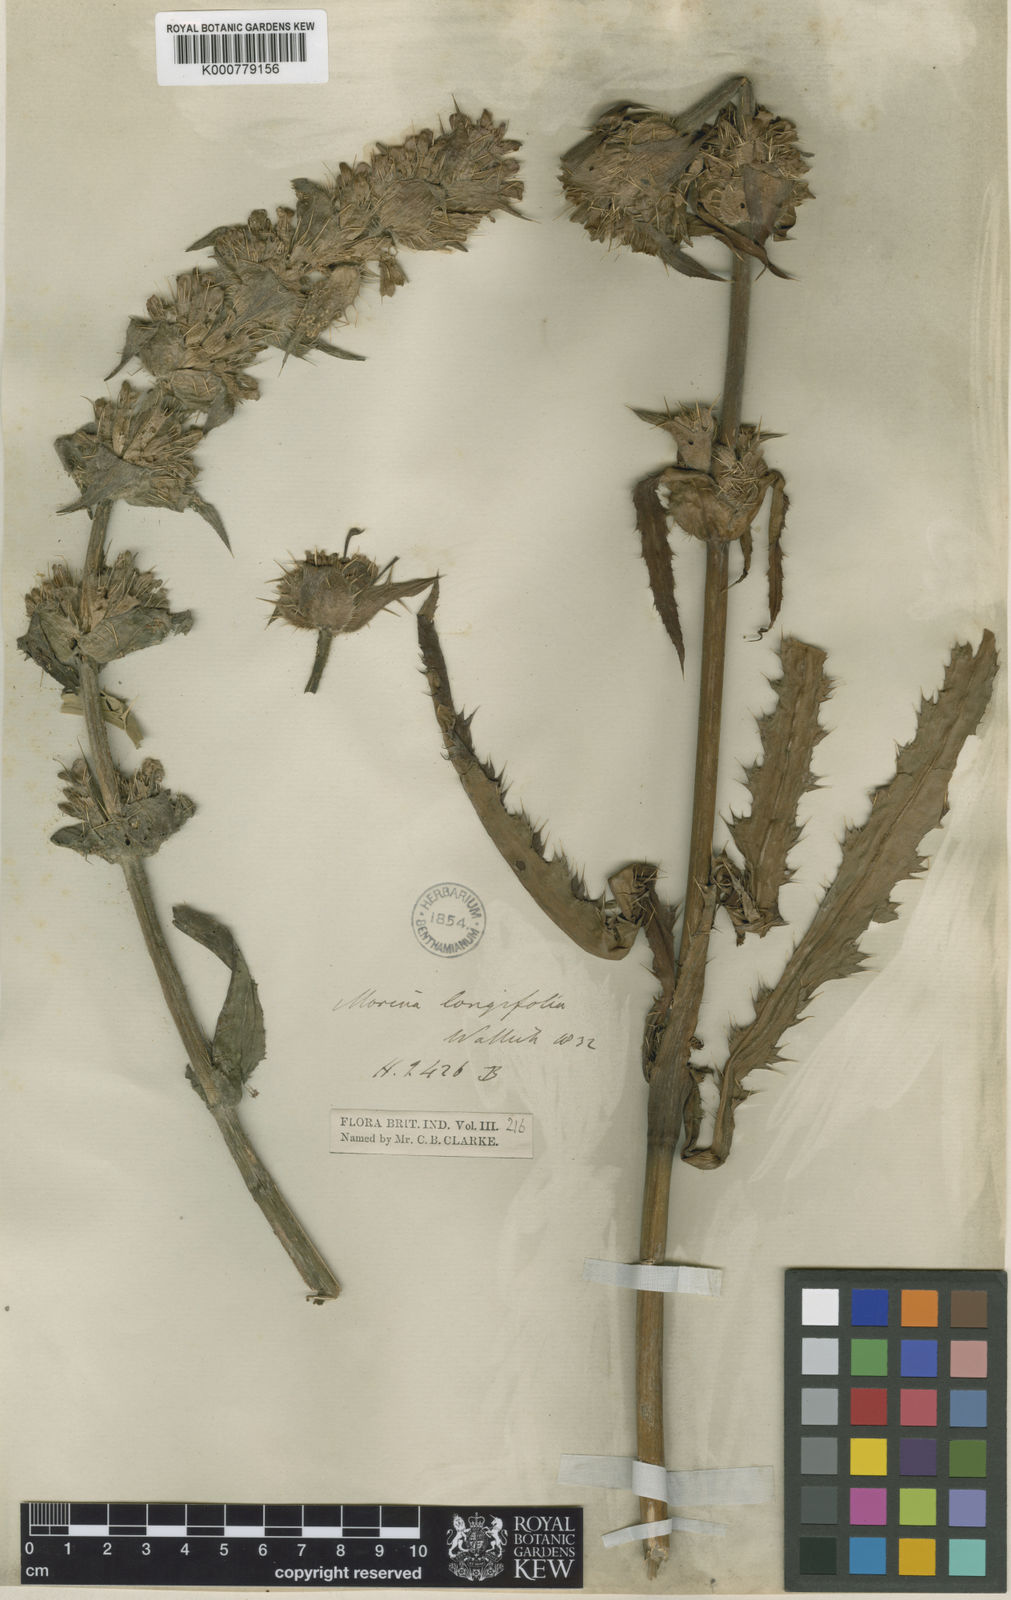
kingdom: Plantae
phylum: Tracheophyta
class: Magnoliopsida
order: Dipsacales
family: Caprifoliaceae
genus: Morina
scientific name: Morina
